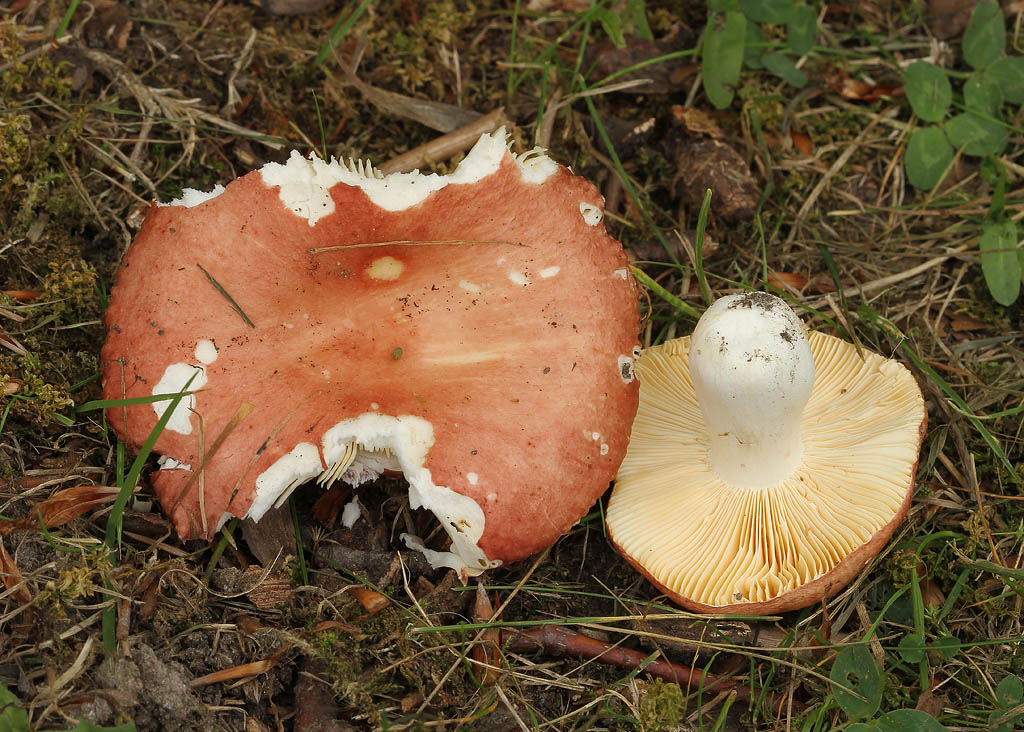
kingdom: Fungi
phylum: Basidiomycota
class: Agaricomycetes
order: Russulales
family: Russulaceae
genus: Russula
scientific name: Russula cuprea
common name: kanel-skørhat
